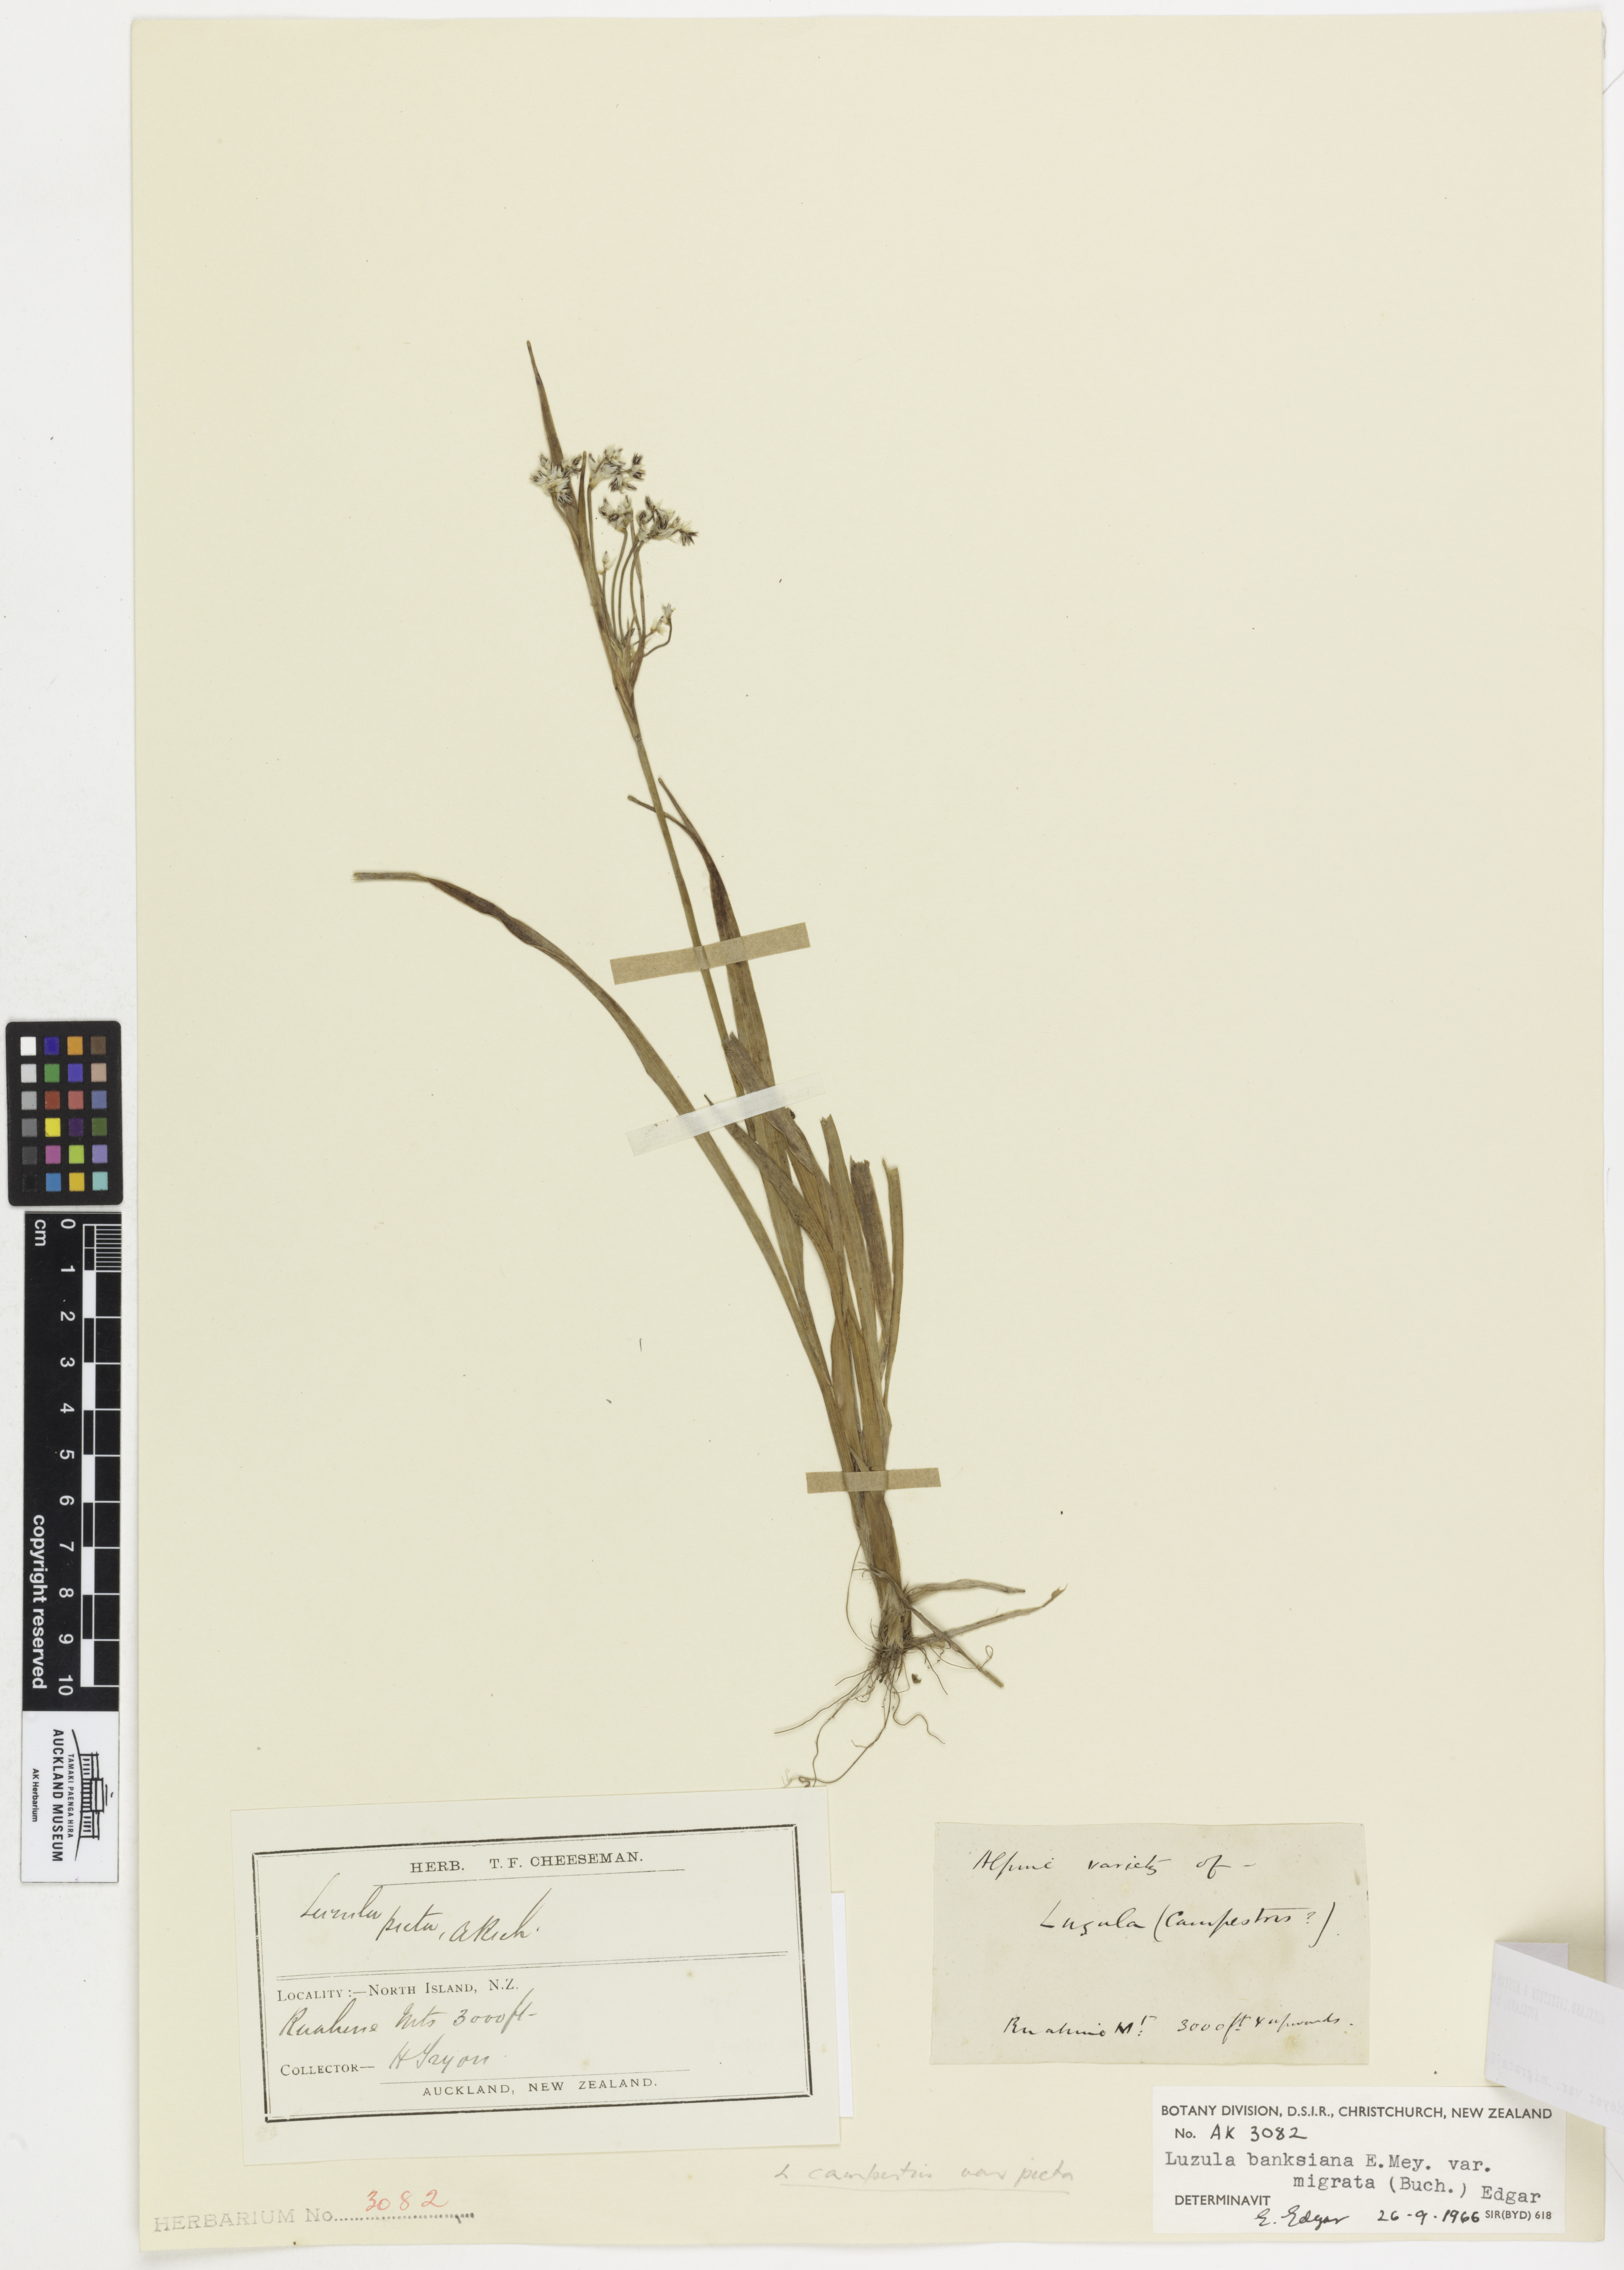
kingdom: Plantae
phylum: Tracheophyta
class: Liliopsida
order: Poales
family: Juncaceae
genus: Luzula
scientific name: Luzula banksiana
